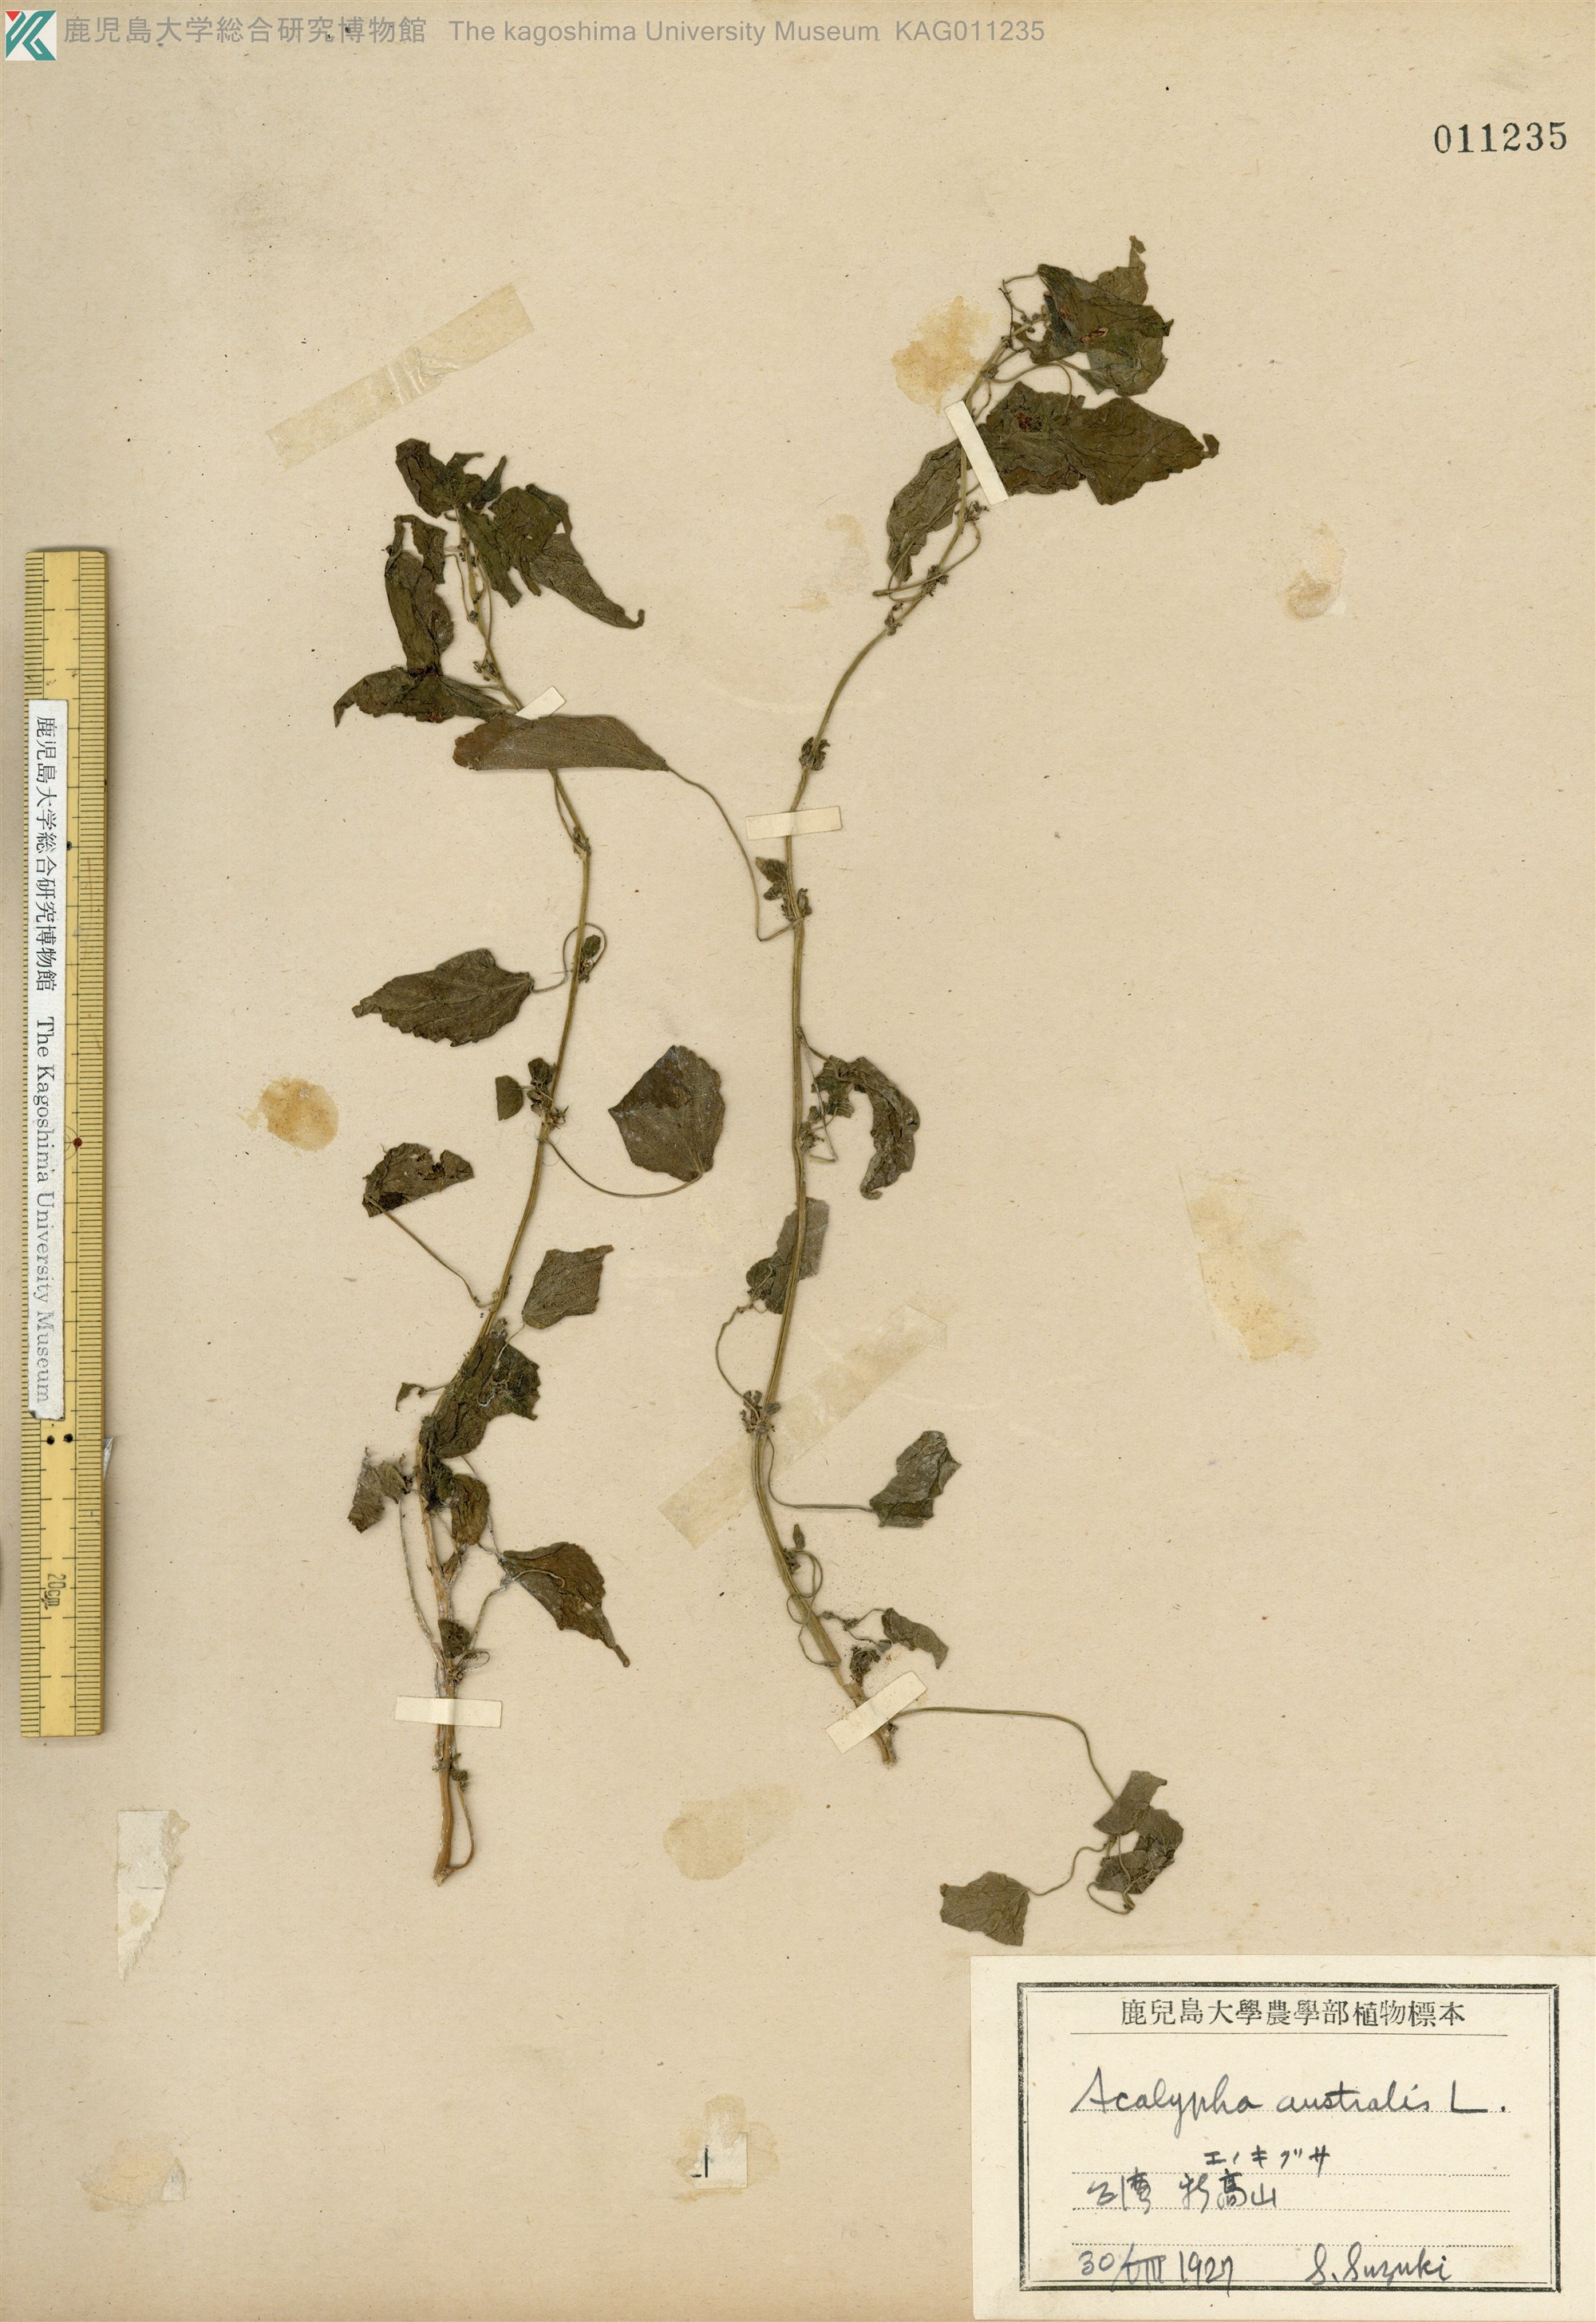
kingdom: Plantae
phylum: Tracheophyta
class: Magnoliopsida
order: Malpighiales
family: Euphorbiaceae
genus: Acalypha
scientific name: Acalypha australis
